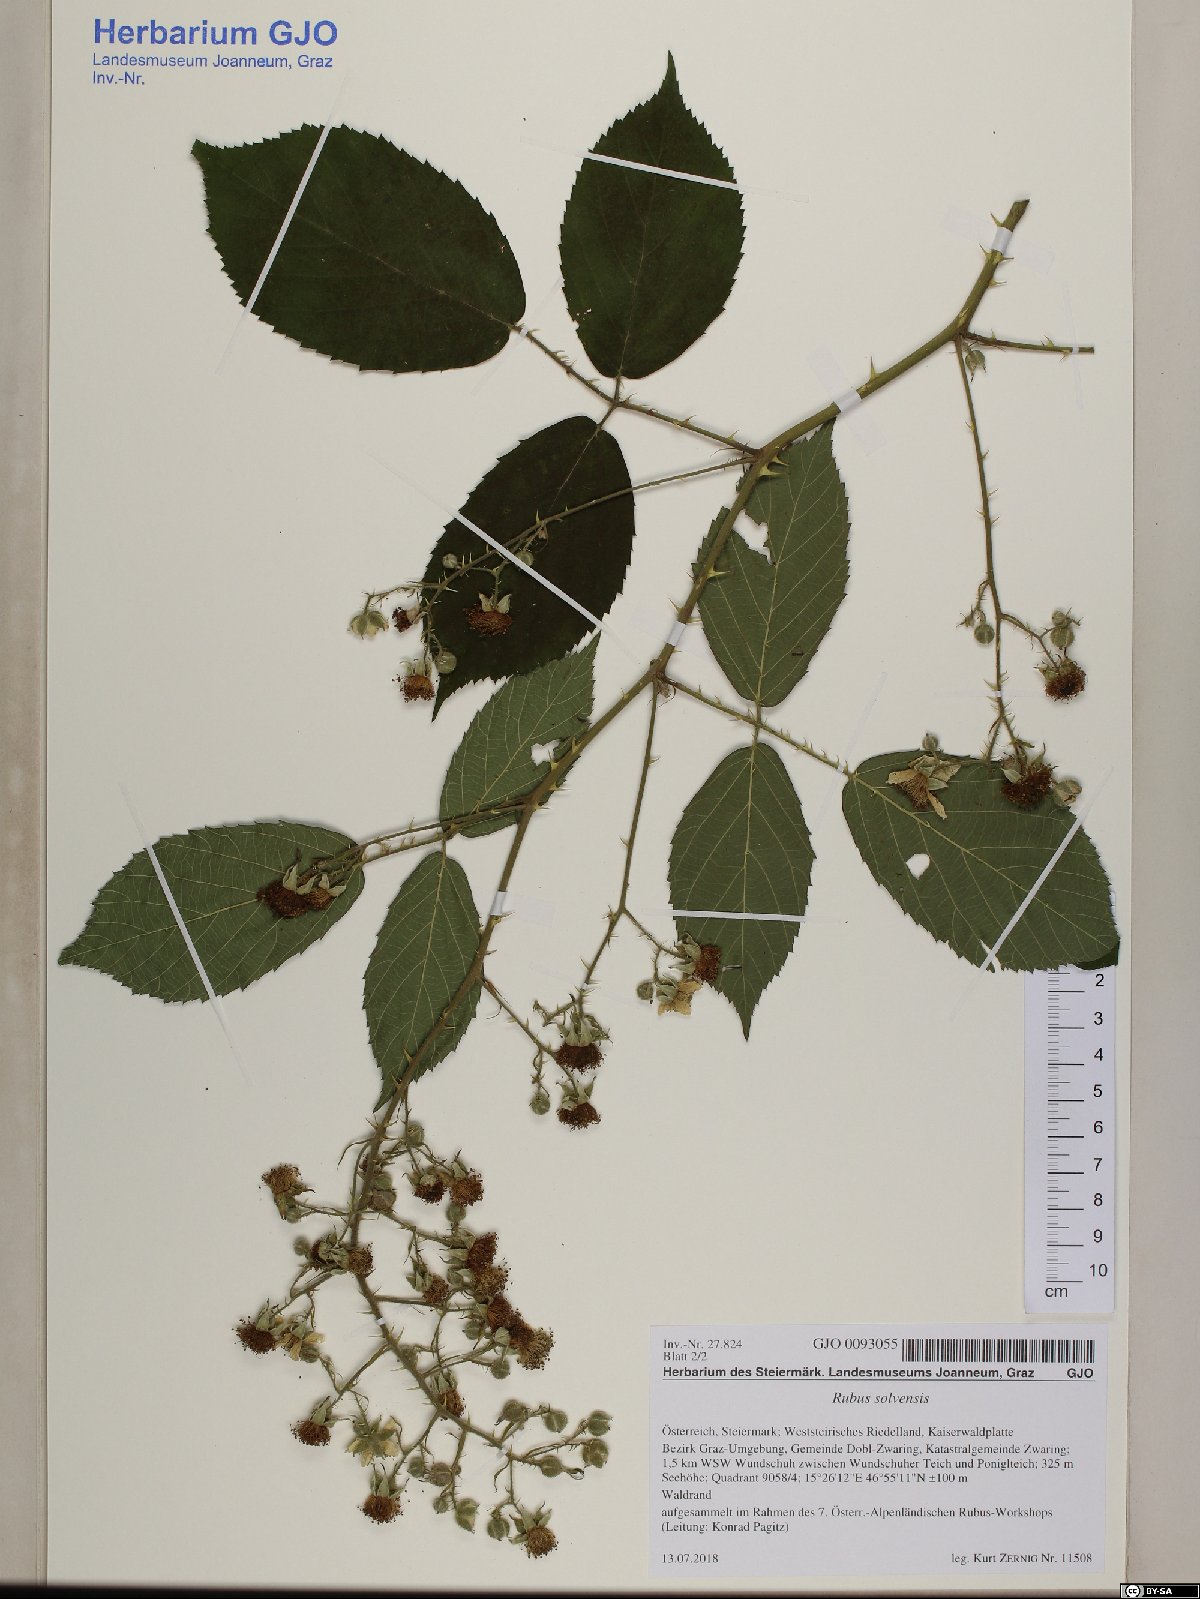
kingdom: Plantae
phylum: Tracheophyta
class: Magnoliopsida
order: Rosales
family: Rosaceae
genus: Rubus
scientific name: Rubus solvensis
